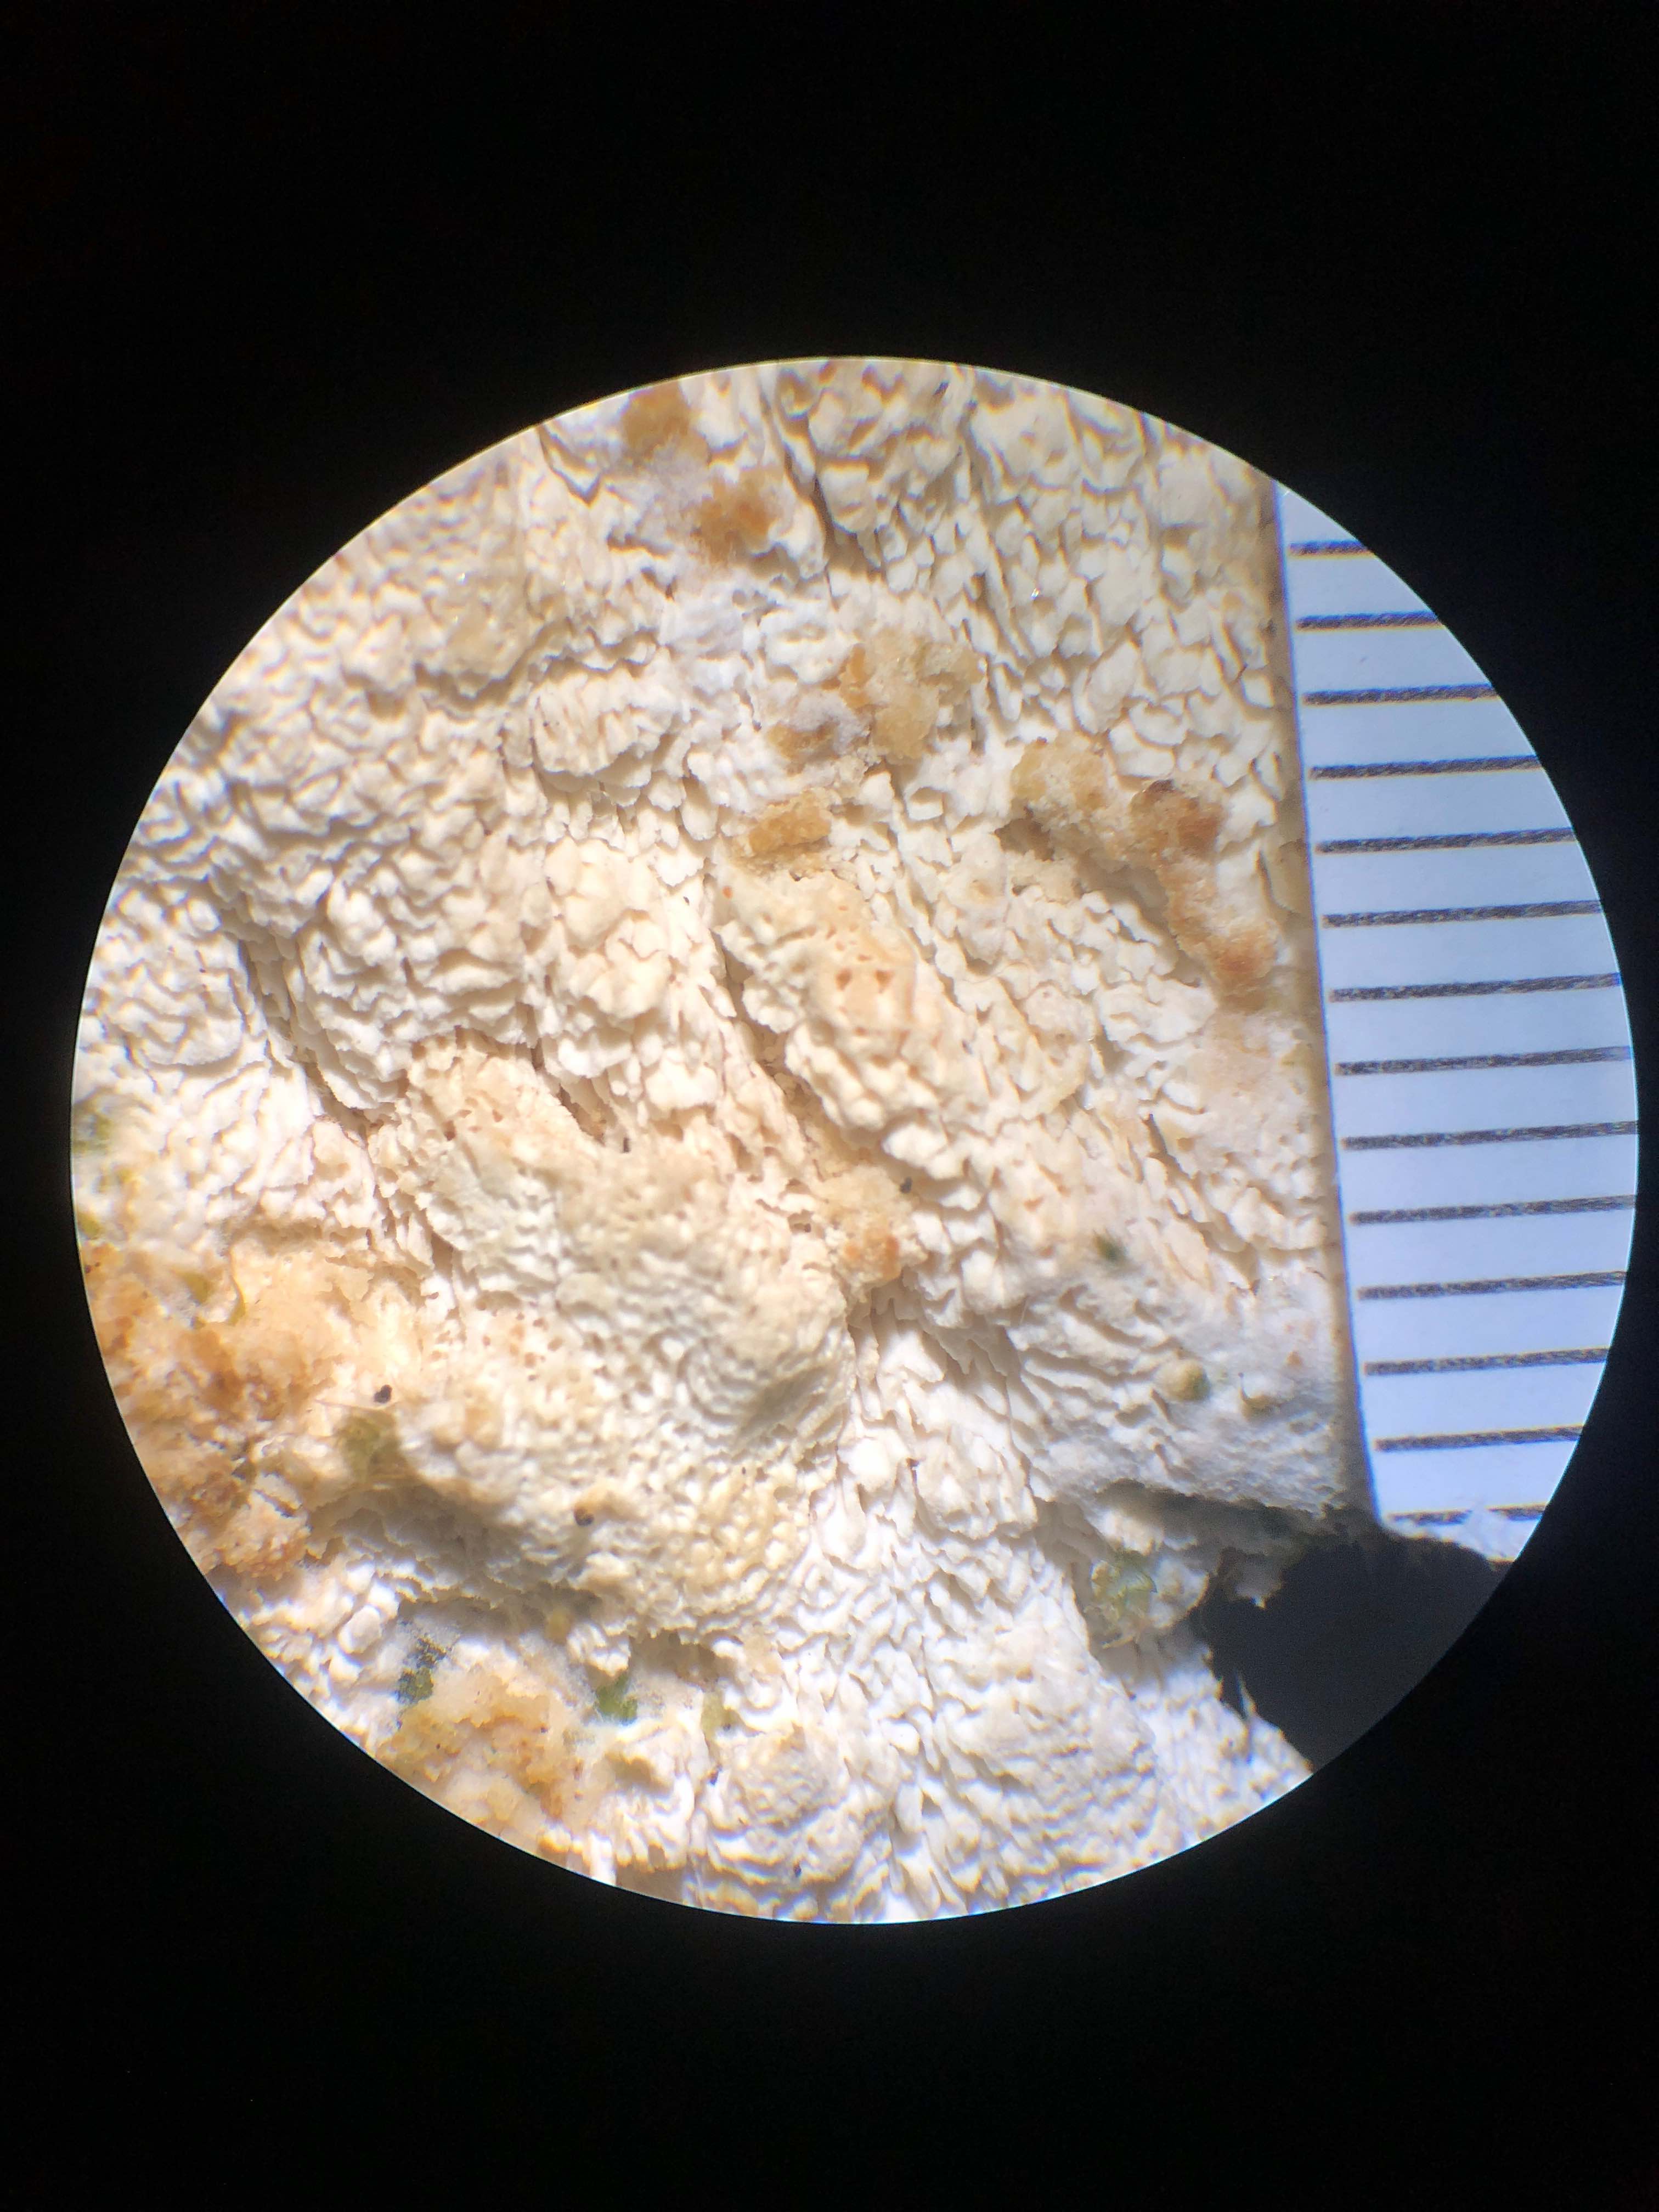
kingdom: Fungi
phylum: Basidiomycota
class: Agaricomycetes
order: Hymenochaetales
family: Schizoporaceae
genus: Schizopora
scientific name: Schizopora paradoxa
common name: hvid tandsvamp
